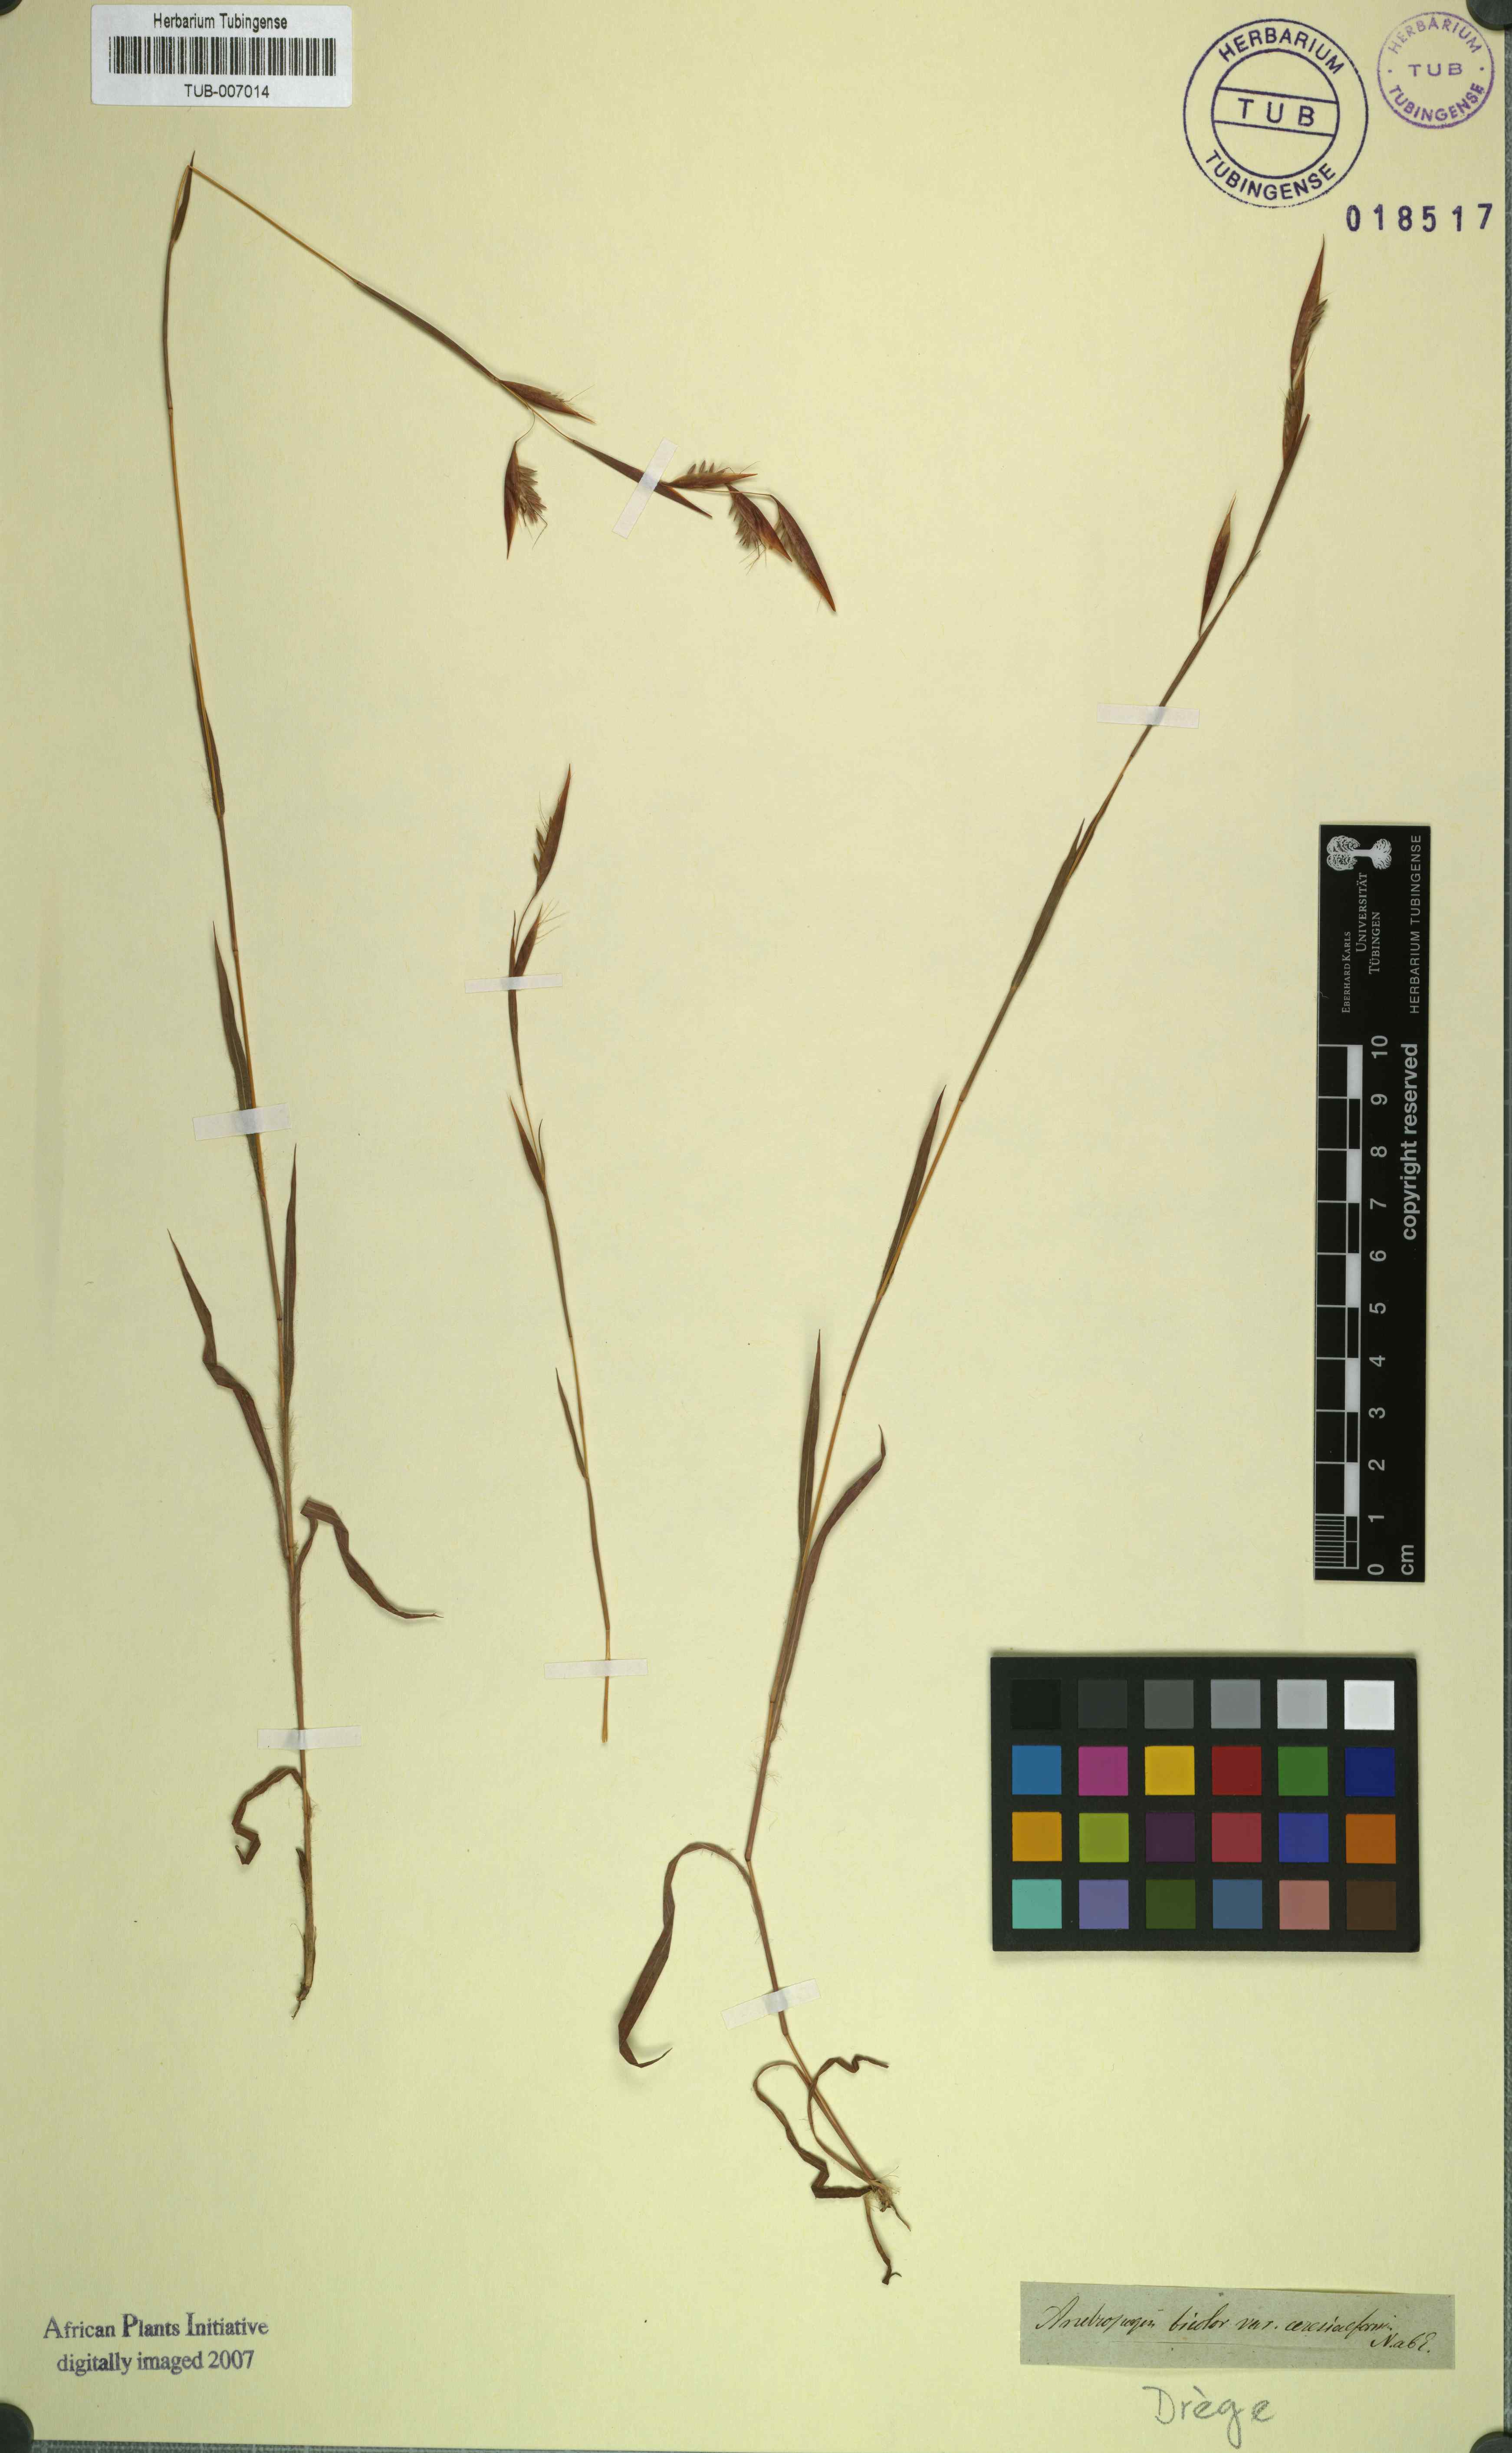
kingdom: Plantae
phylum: Tracheophyta
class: Liliopsida
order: Poales
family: Poaceae
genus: Hyparrhenia
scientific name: Hyparrhenia dichroa
